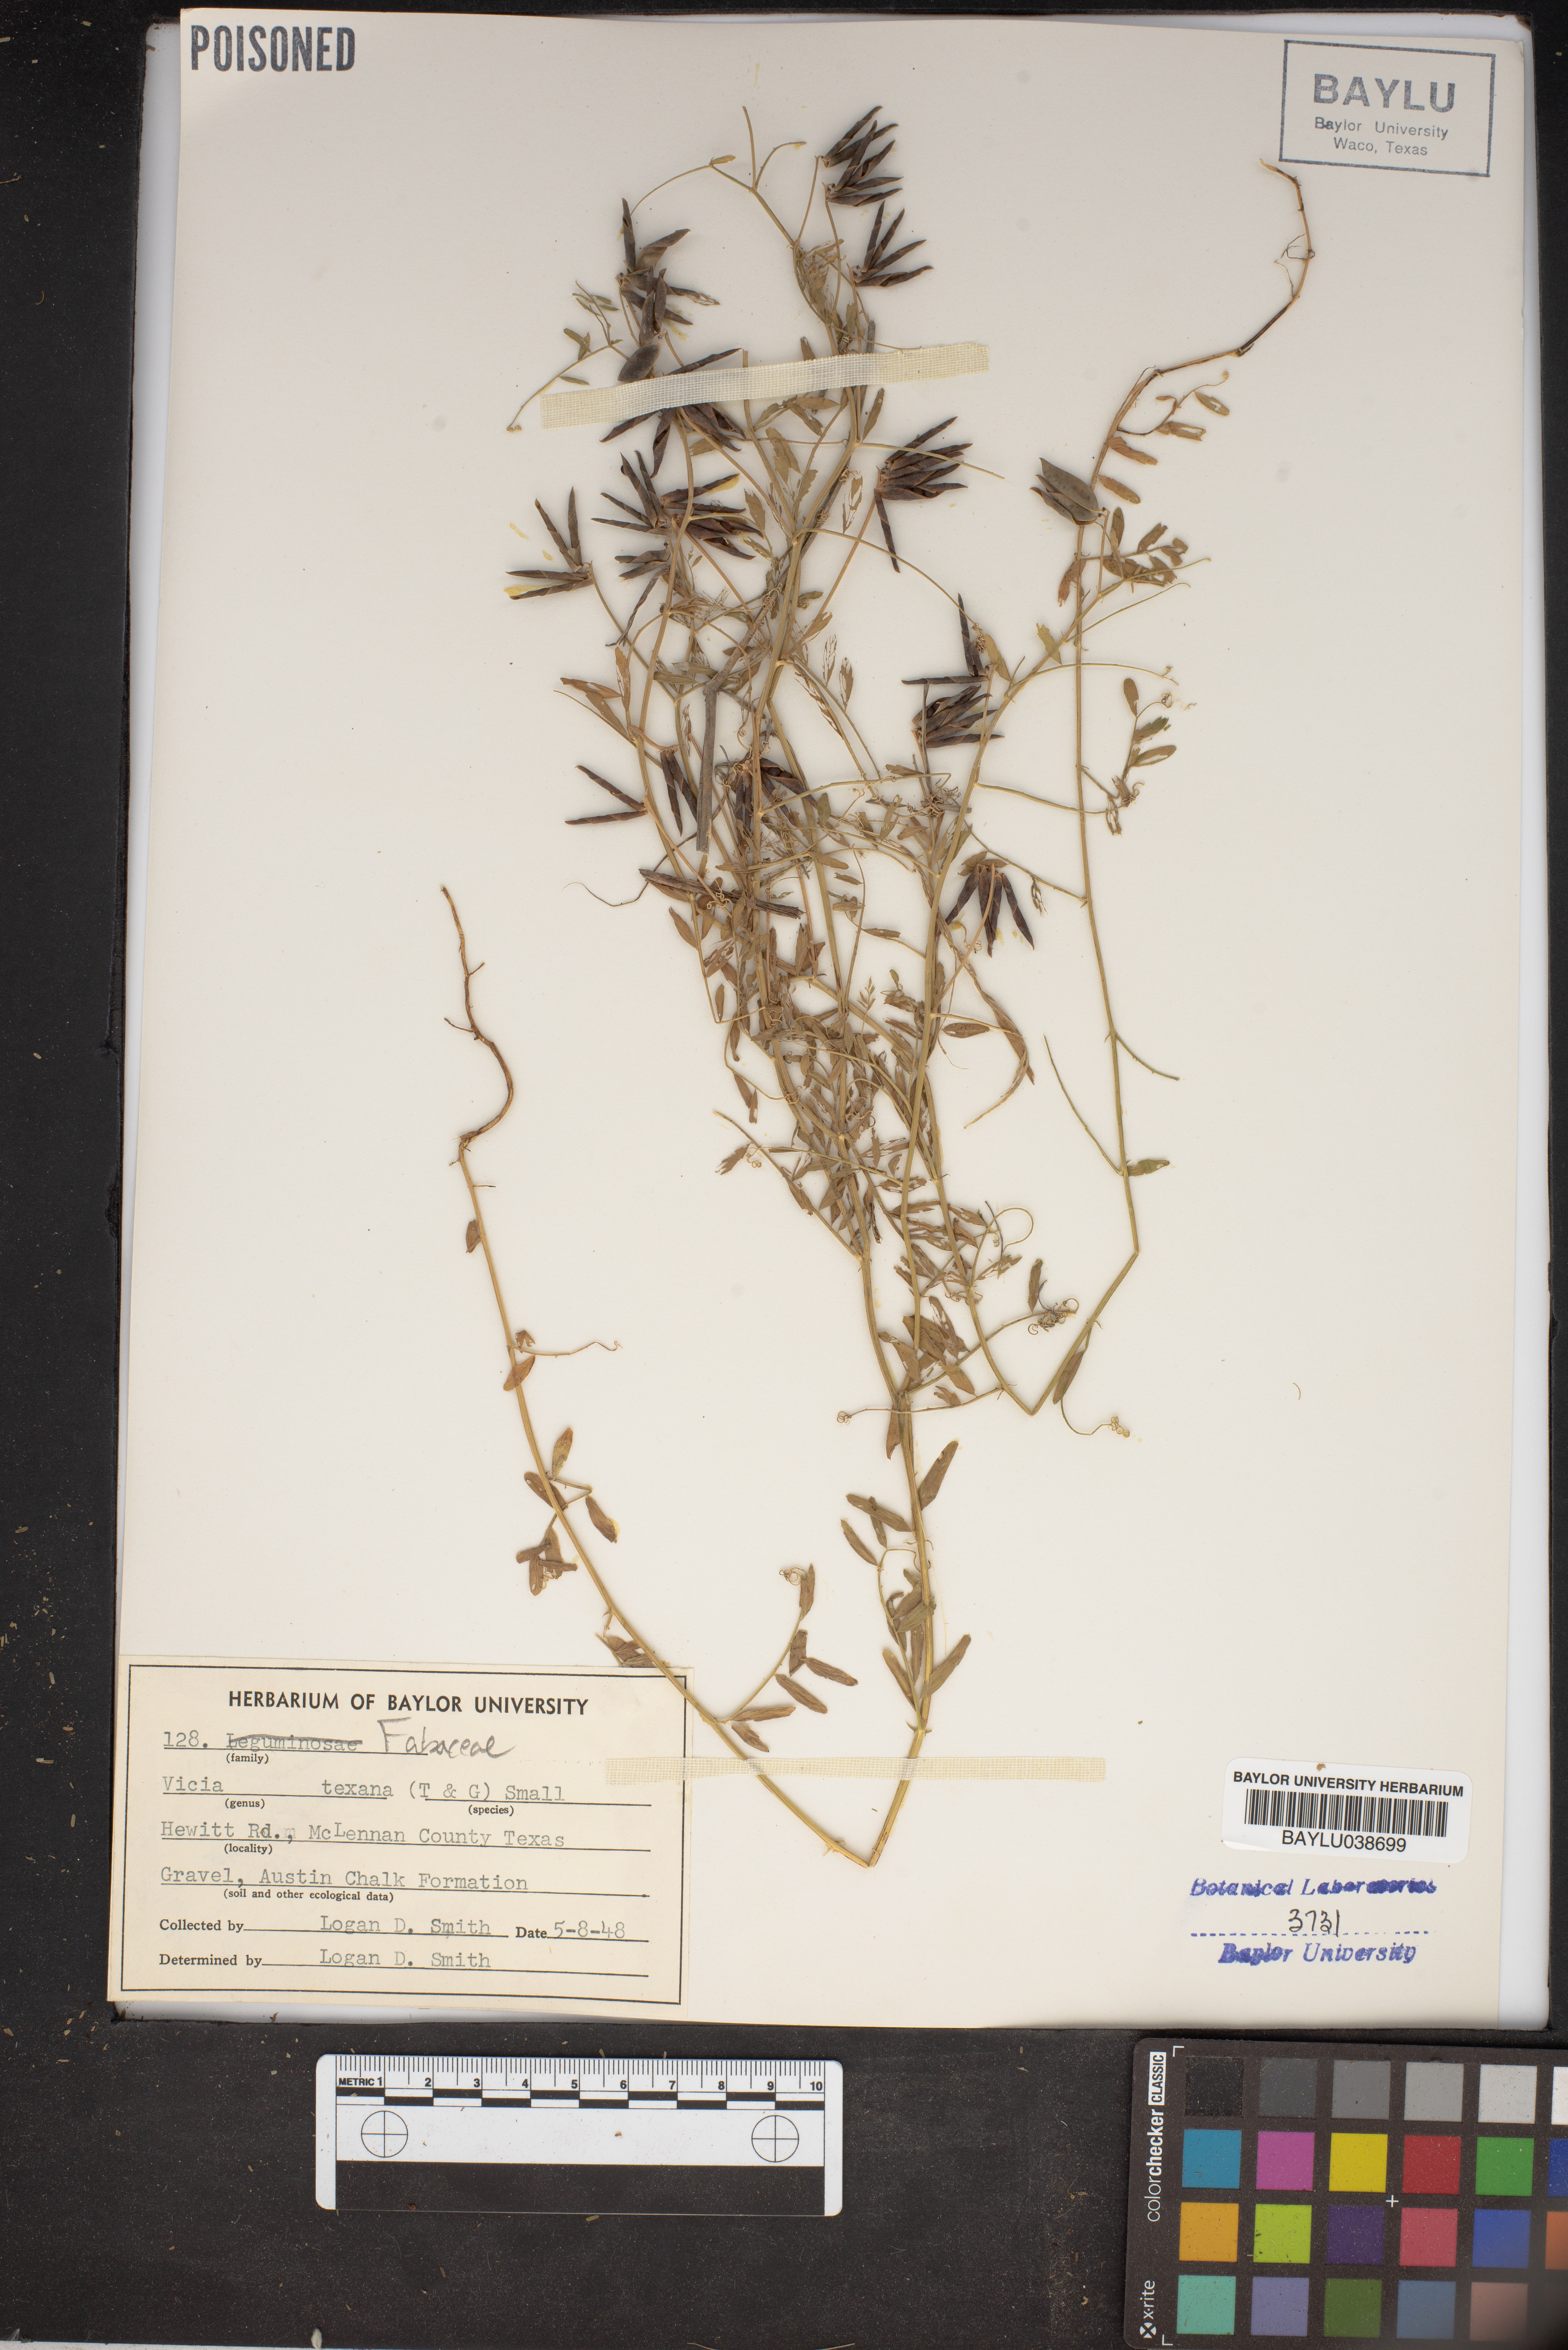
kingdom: Plantae
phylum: Tracheophyta
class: Magnoliopsida
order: Fabales
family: Fabaceae
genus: Vicia
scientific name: Vicia ludoviciana
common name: Louisiana vetch
